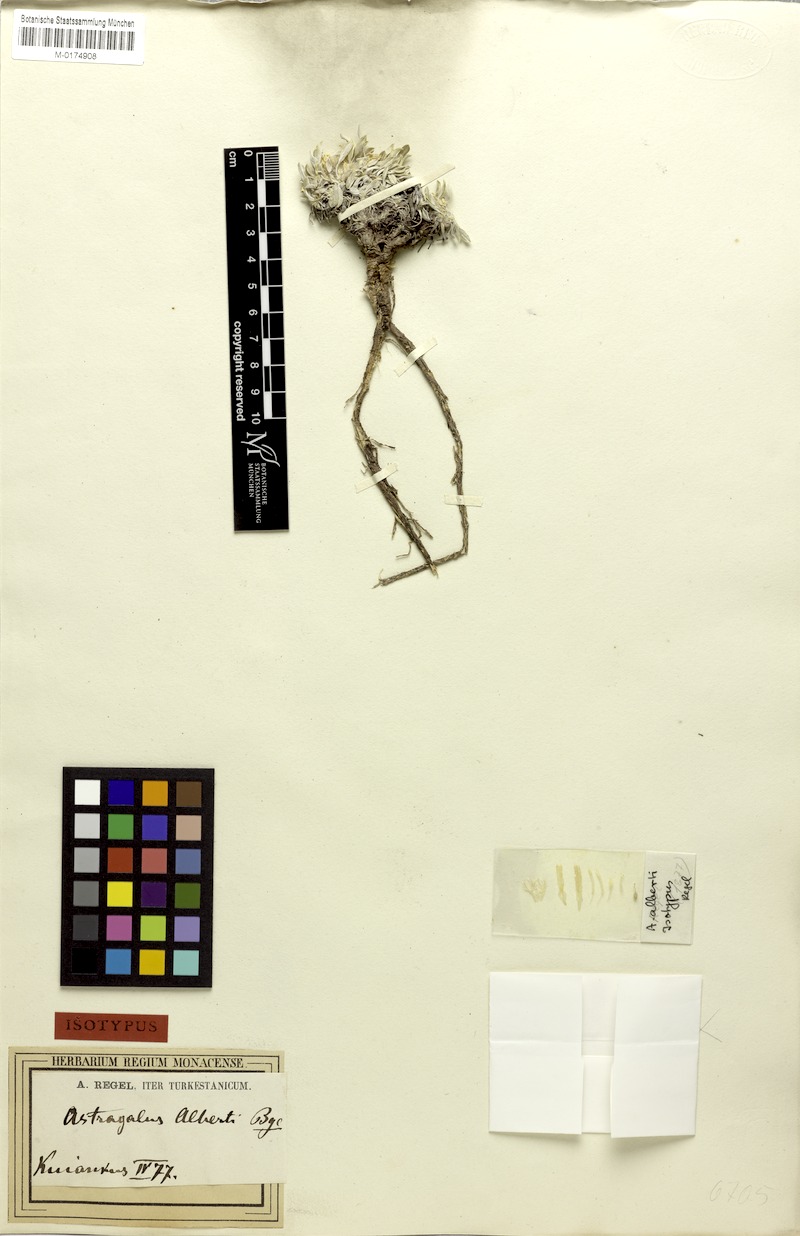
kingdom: Plantae
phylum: Tracheophyta
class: Magnoliopsida
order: Fabales
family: Fabaceae
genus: Astragalus
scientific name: Astragalus alberti
